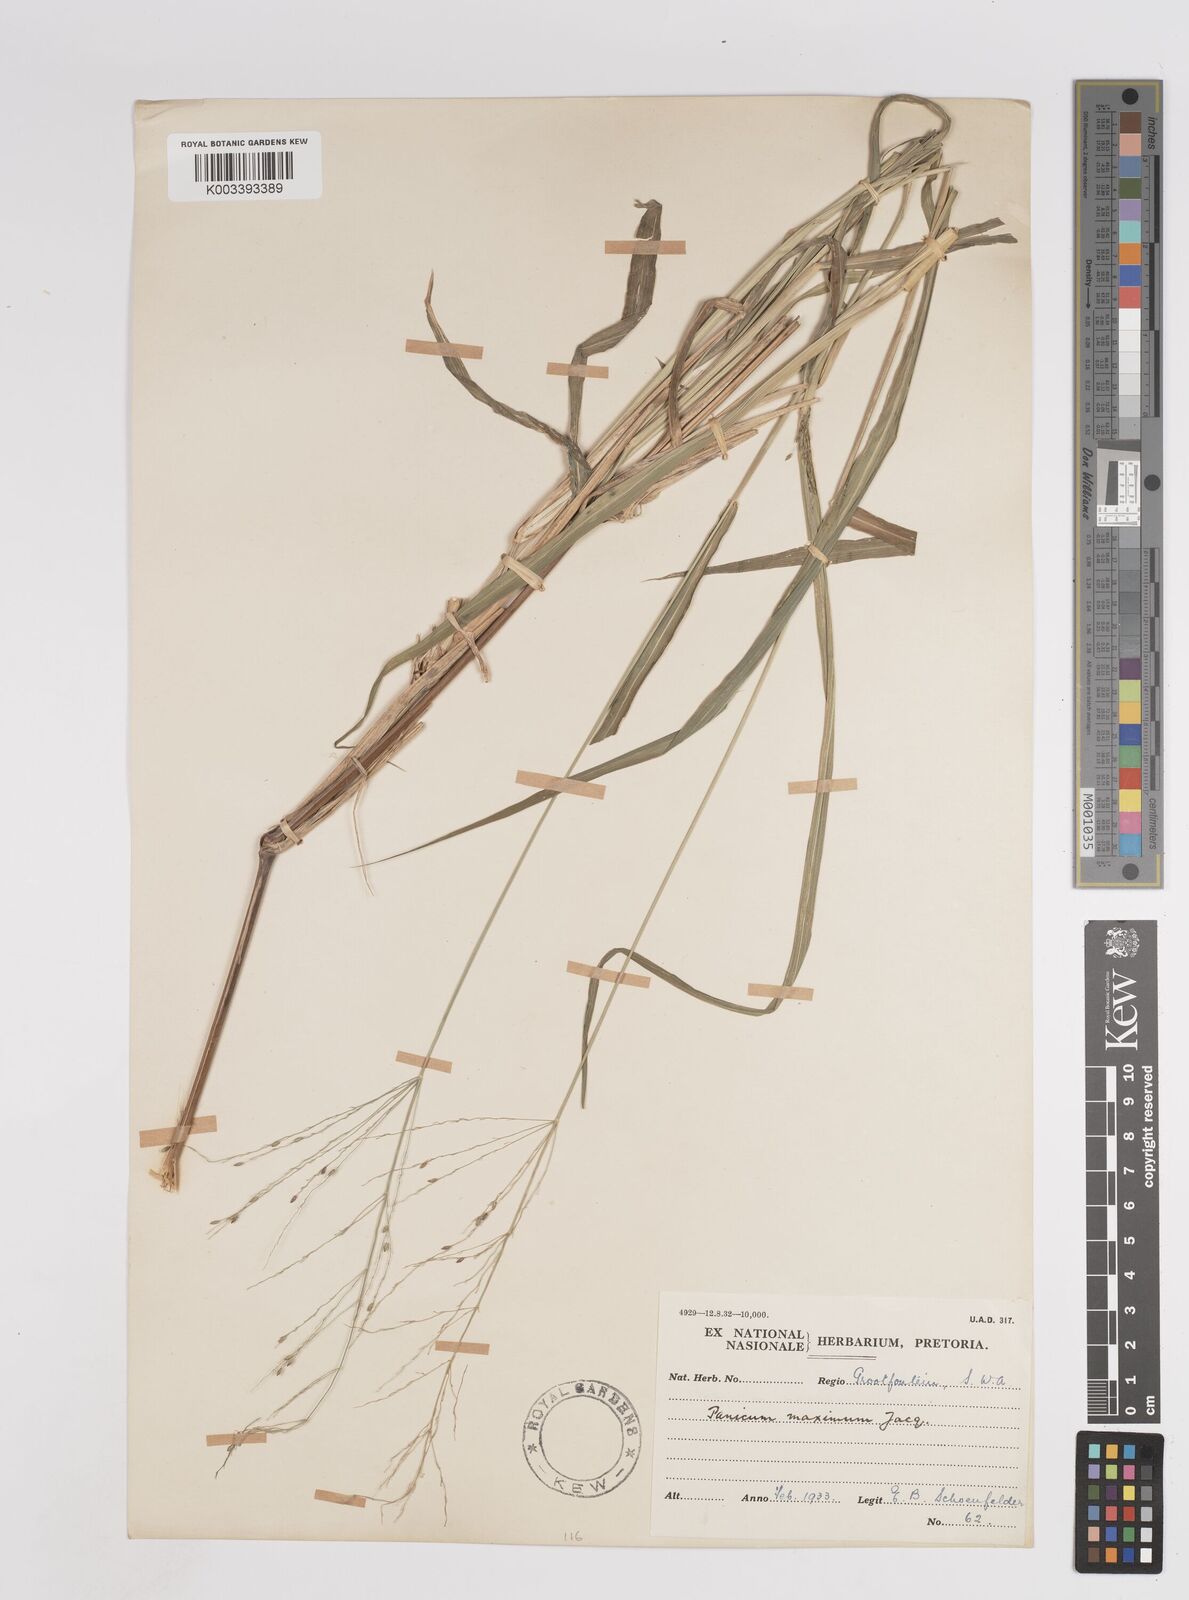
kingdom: Plantae
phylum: Tracheophyta
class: Liliopsida
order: Poales
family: Poaceae
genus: Megathyrsus
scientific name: Megathyrsus maximus
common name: Guineagrass
